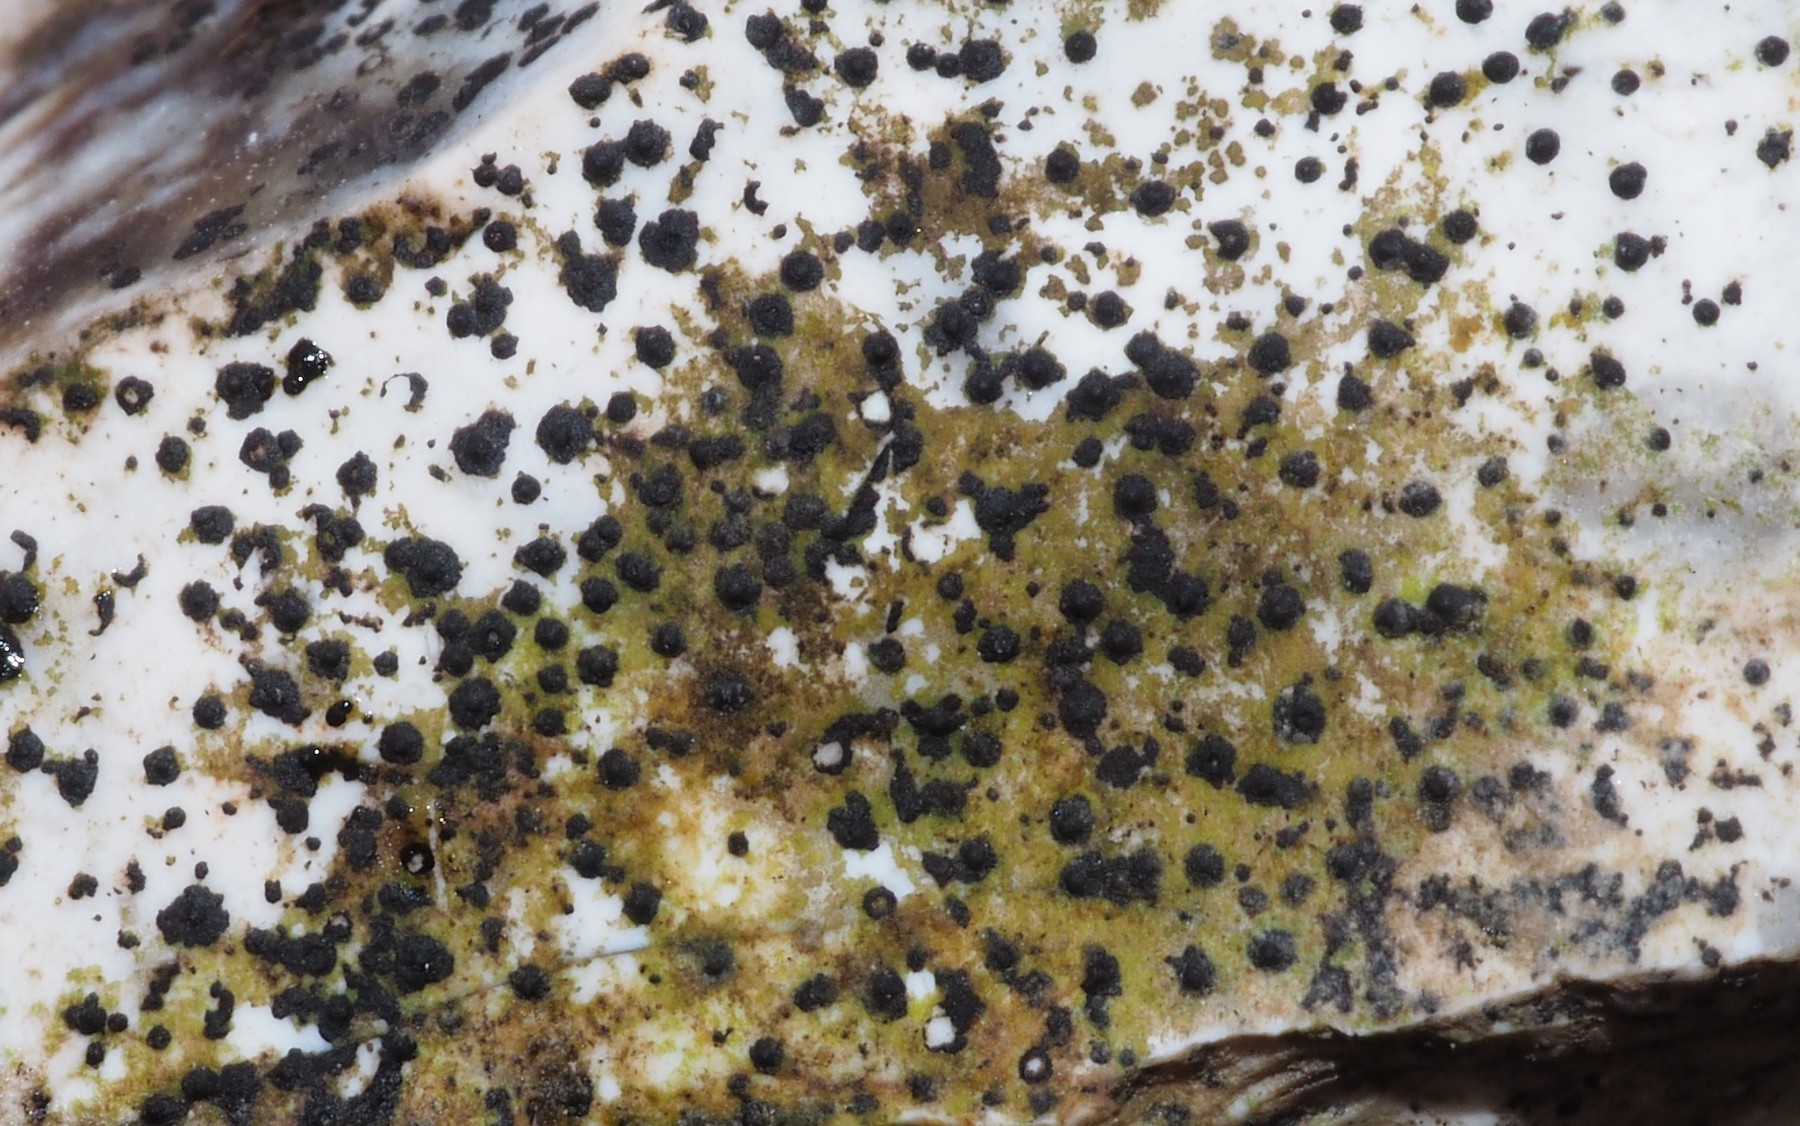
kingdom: Fungi
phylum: Ascomycota
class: Eurotiomycetes
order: Verrucariales
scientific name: Verrucariales
